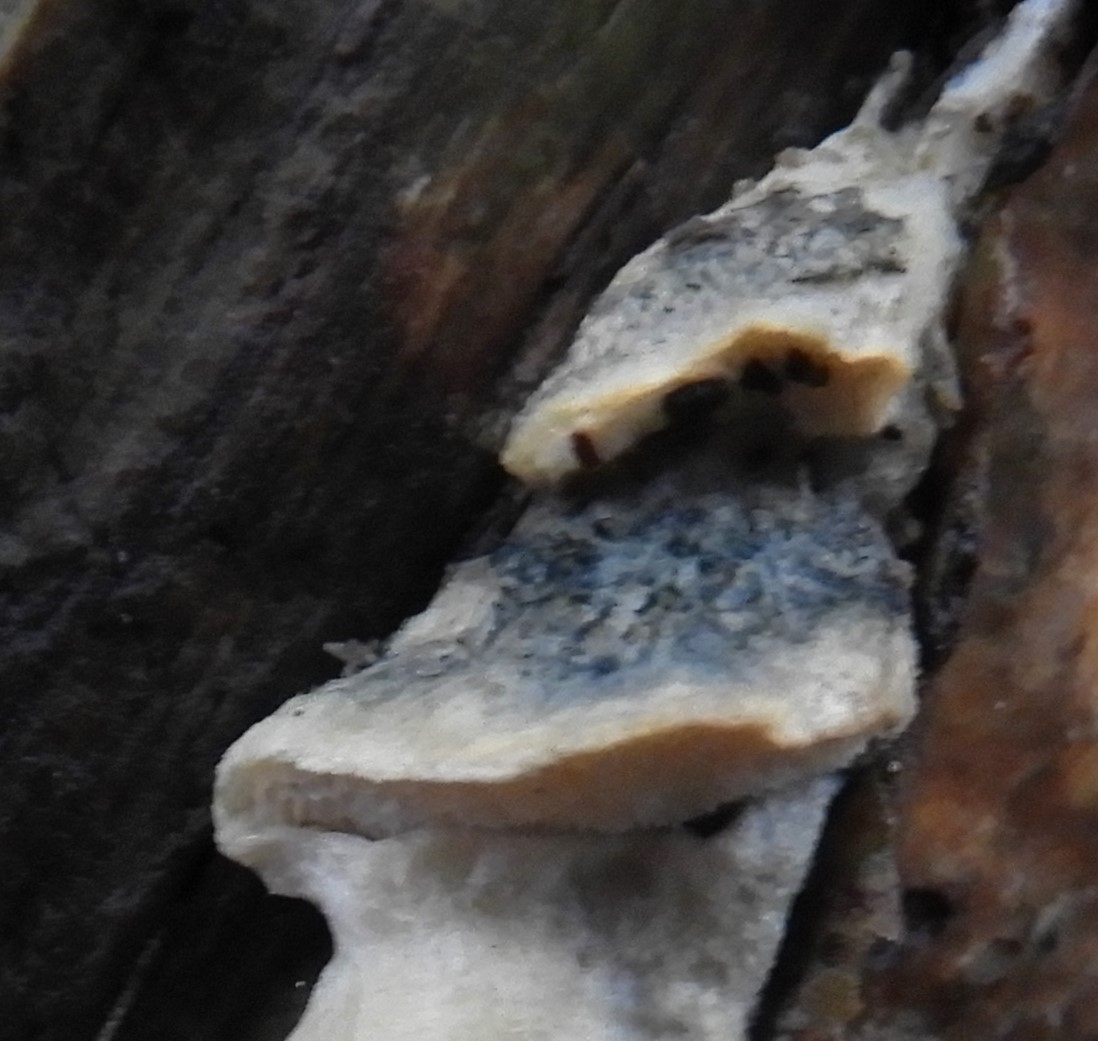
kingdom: Fungi
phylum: Basidiomycota
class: Agaricomycetes
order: Polyporales
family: Polyporaceae
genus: Cyanosporus
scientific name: Cyanosporus caesius
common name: blålig kødporesvamp
